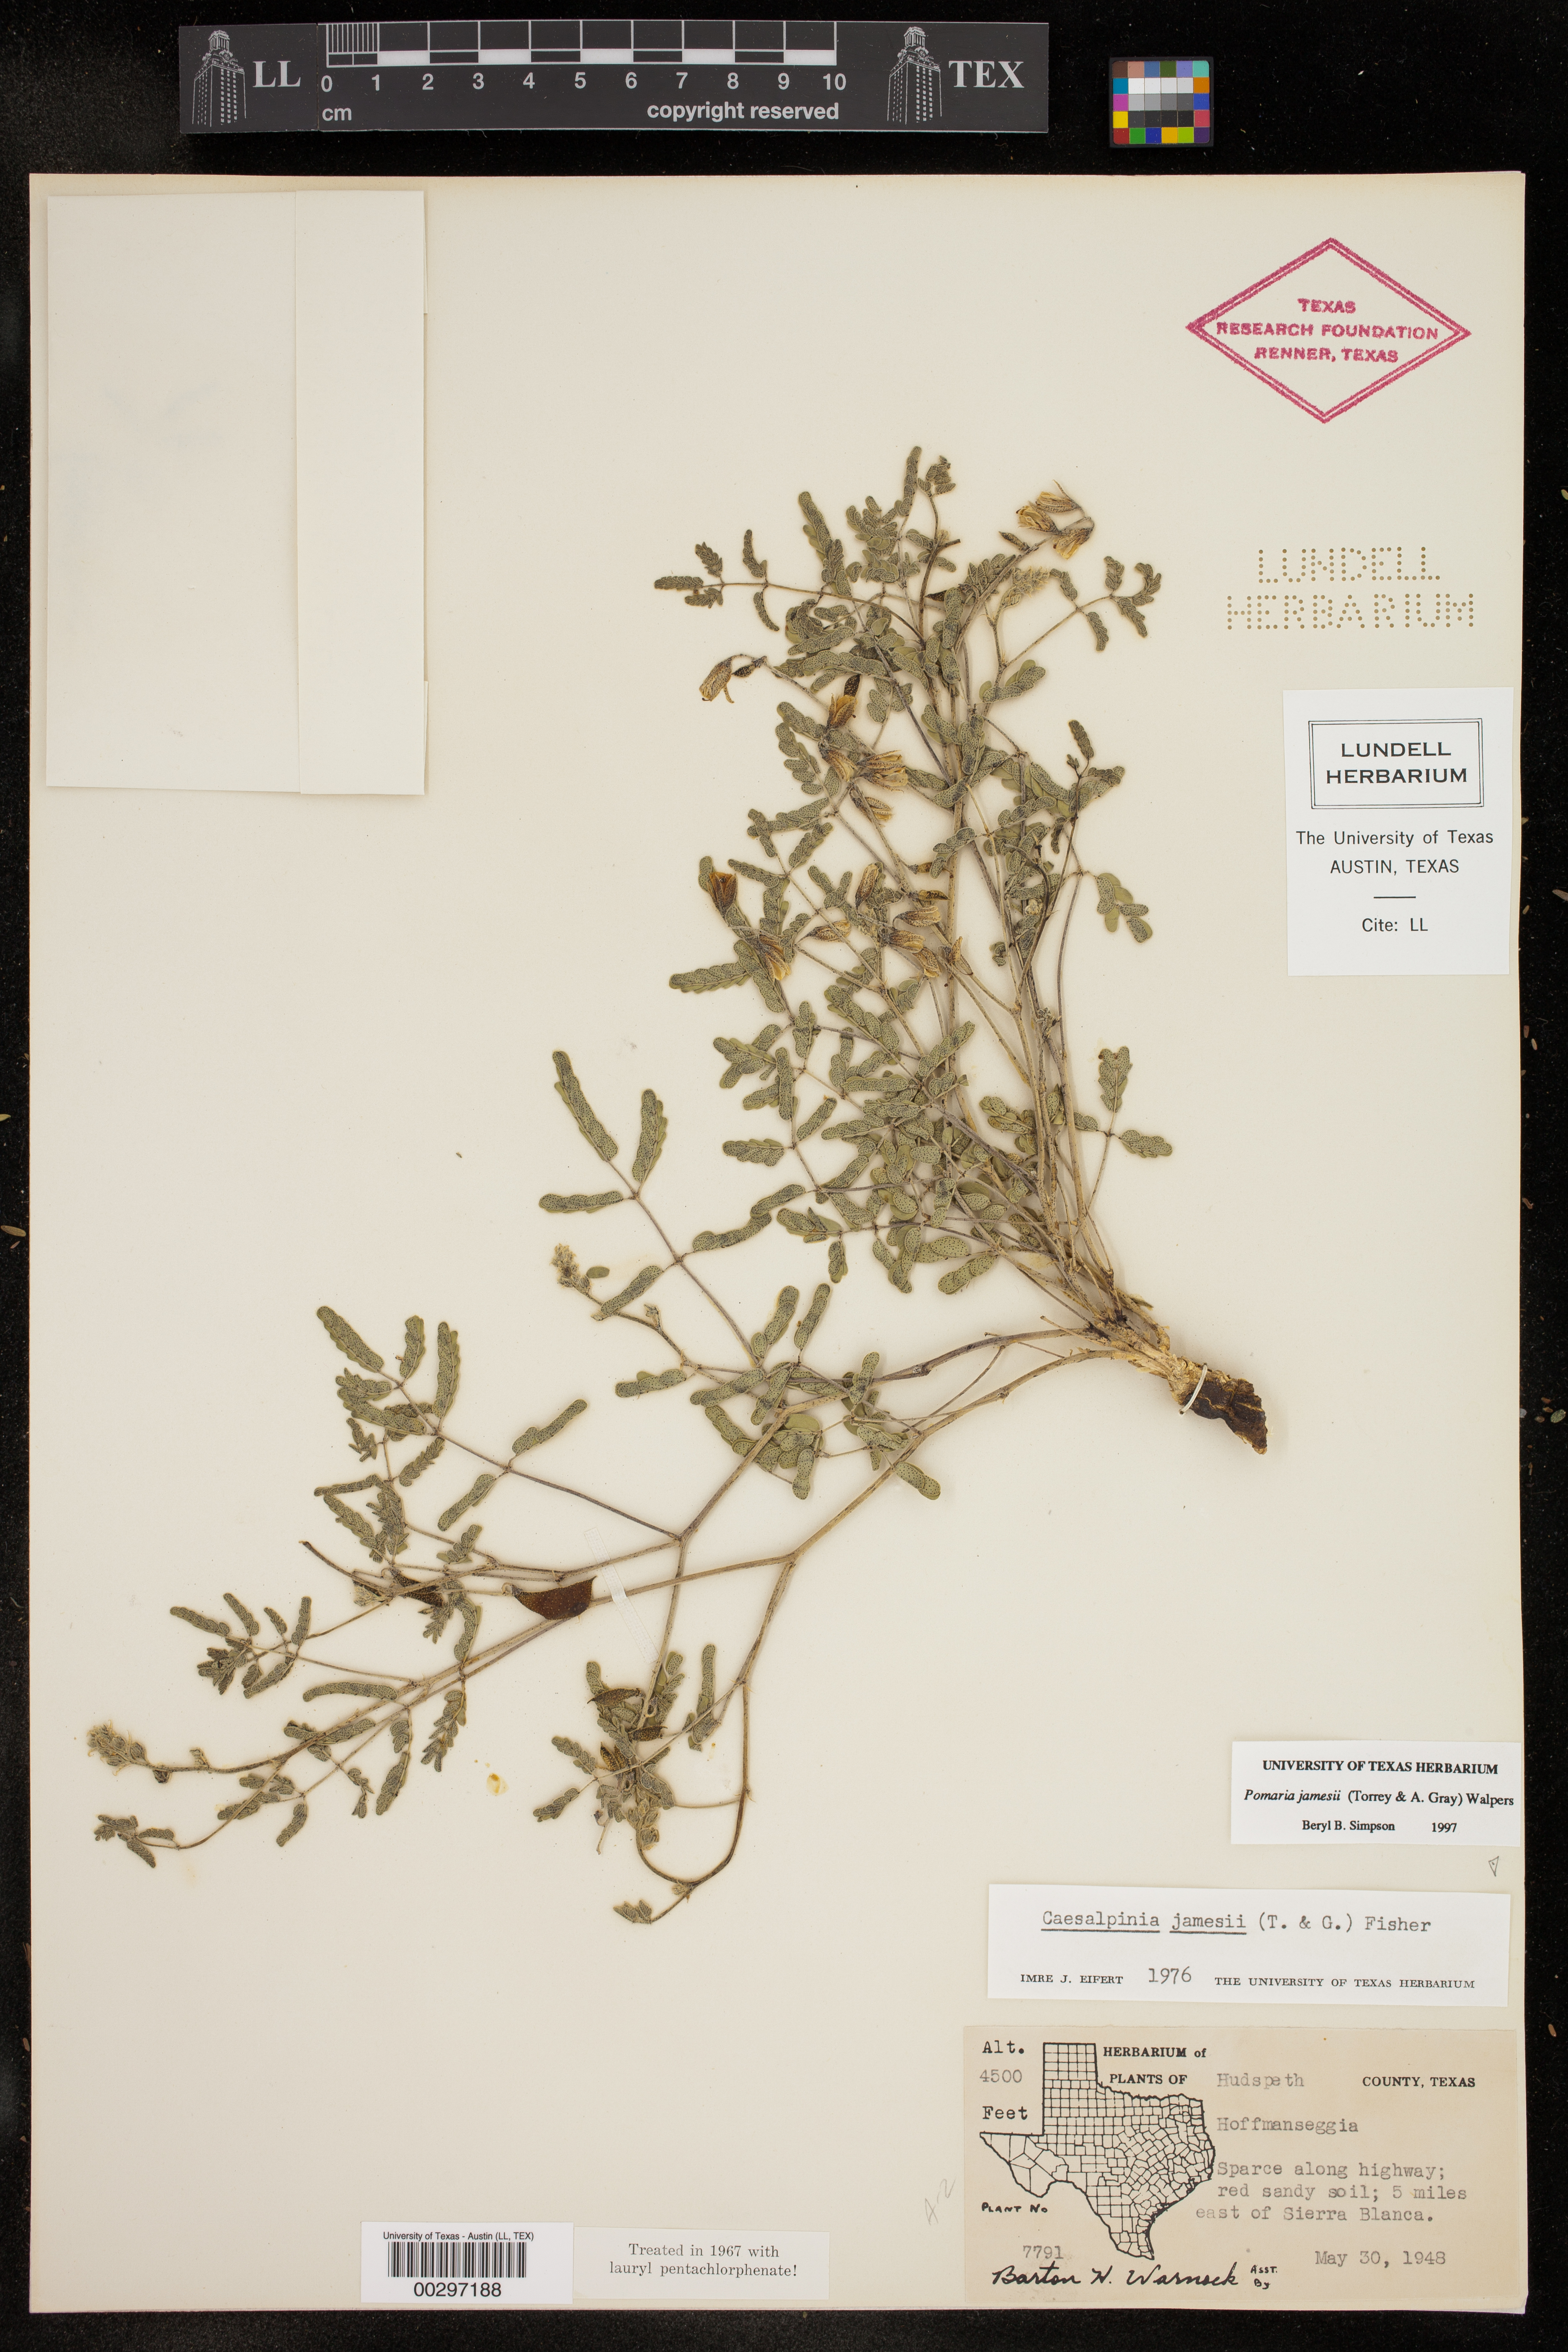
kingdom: Plantae
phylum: Tracheophyta
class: Magnoliopsida
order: Fabales
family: Fabaceae
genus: Pomaria
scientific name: Pomaria jamesii
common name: James' caesalpinia
